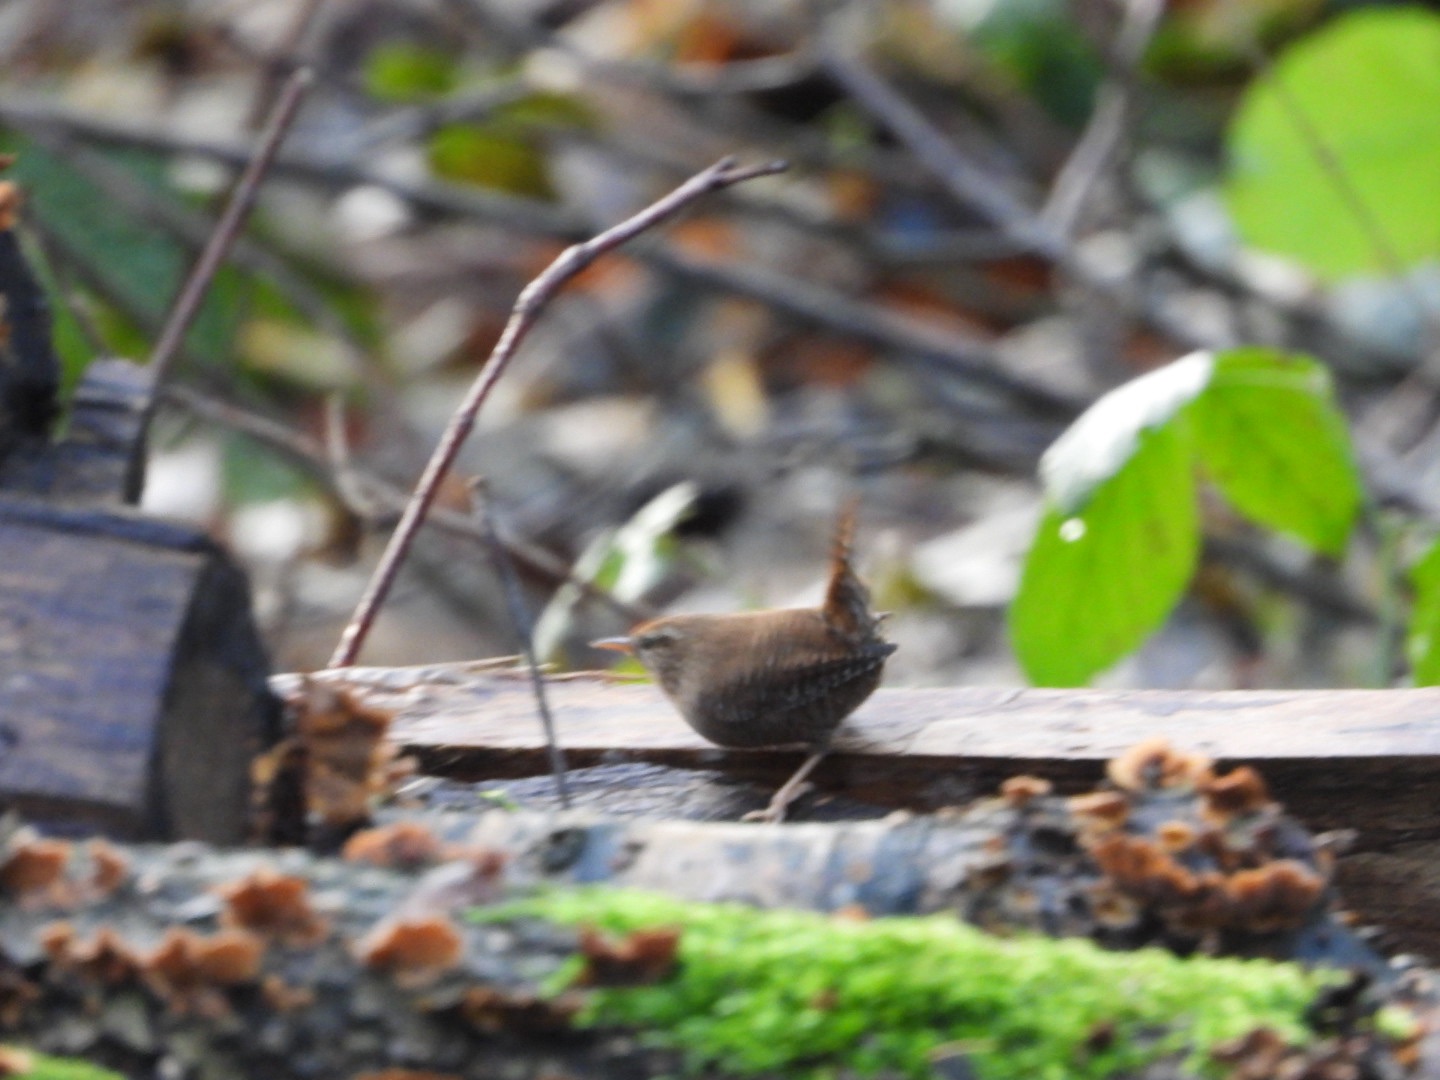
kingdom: Animalia
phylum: Chordata
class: Aves
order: Passeriformes
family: Troglodytidae
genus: Troglodytes
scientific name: Troglodytes troglodytes
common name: Gærdesmutte
